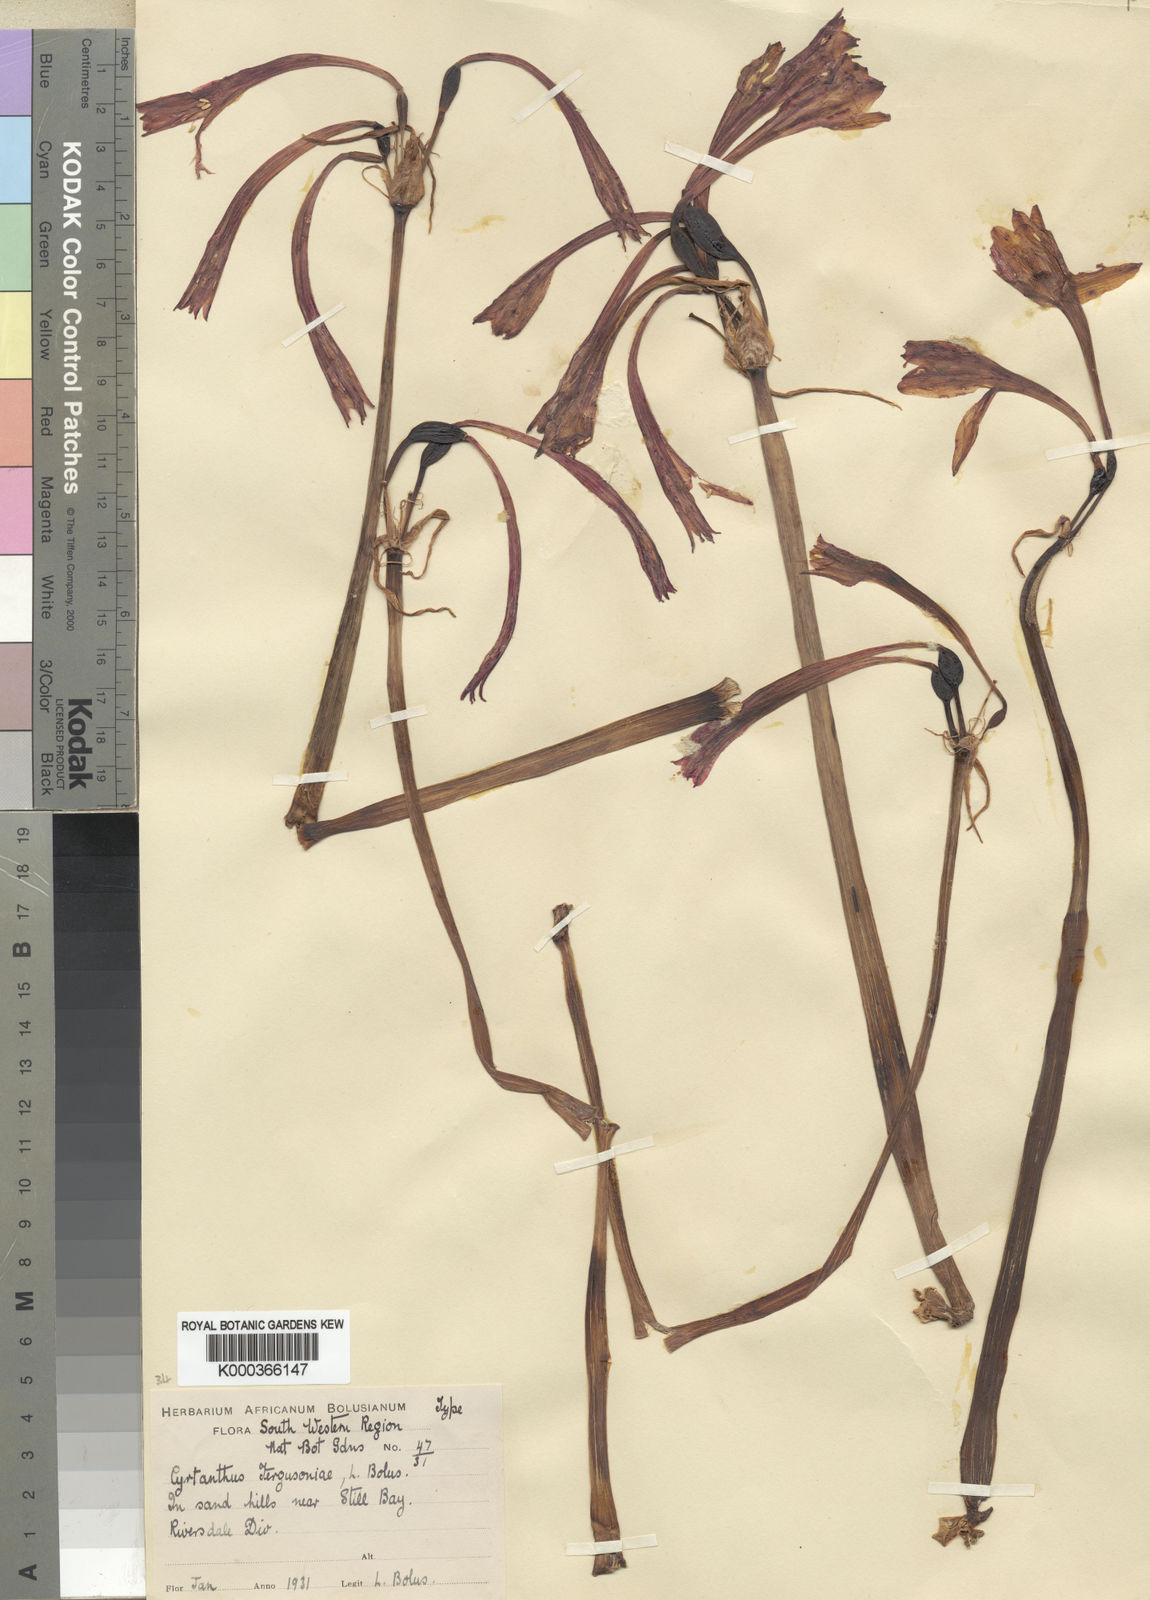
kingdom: Plantae
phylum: Tracheophyta
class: Liliopsida
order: Asparagales
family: Amaryllidaceae
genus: Cyrtanthus
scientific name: Cyrtanthus fergusoniae
